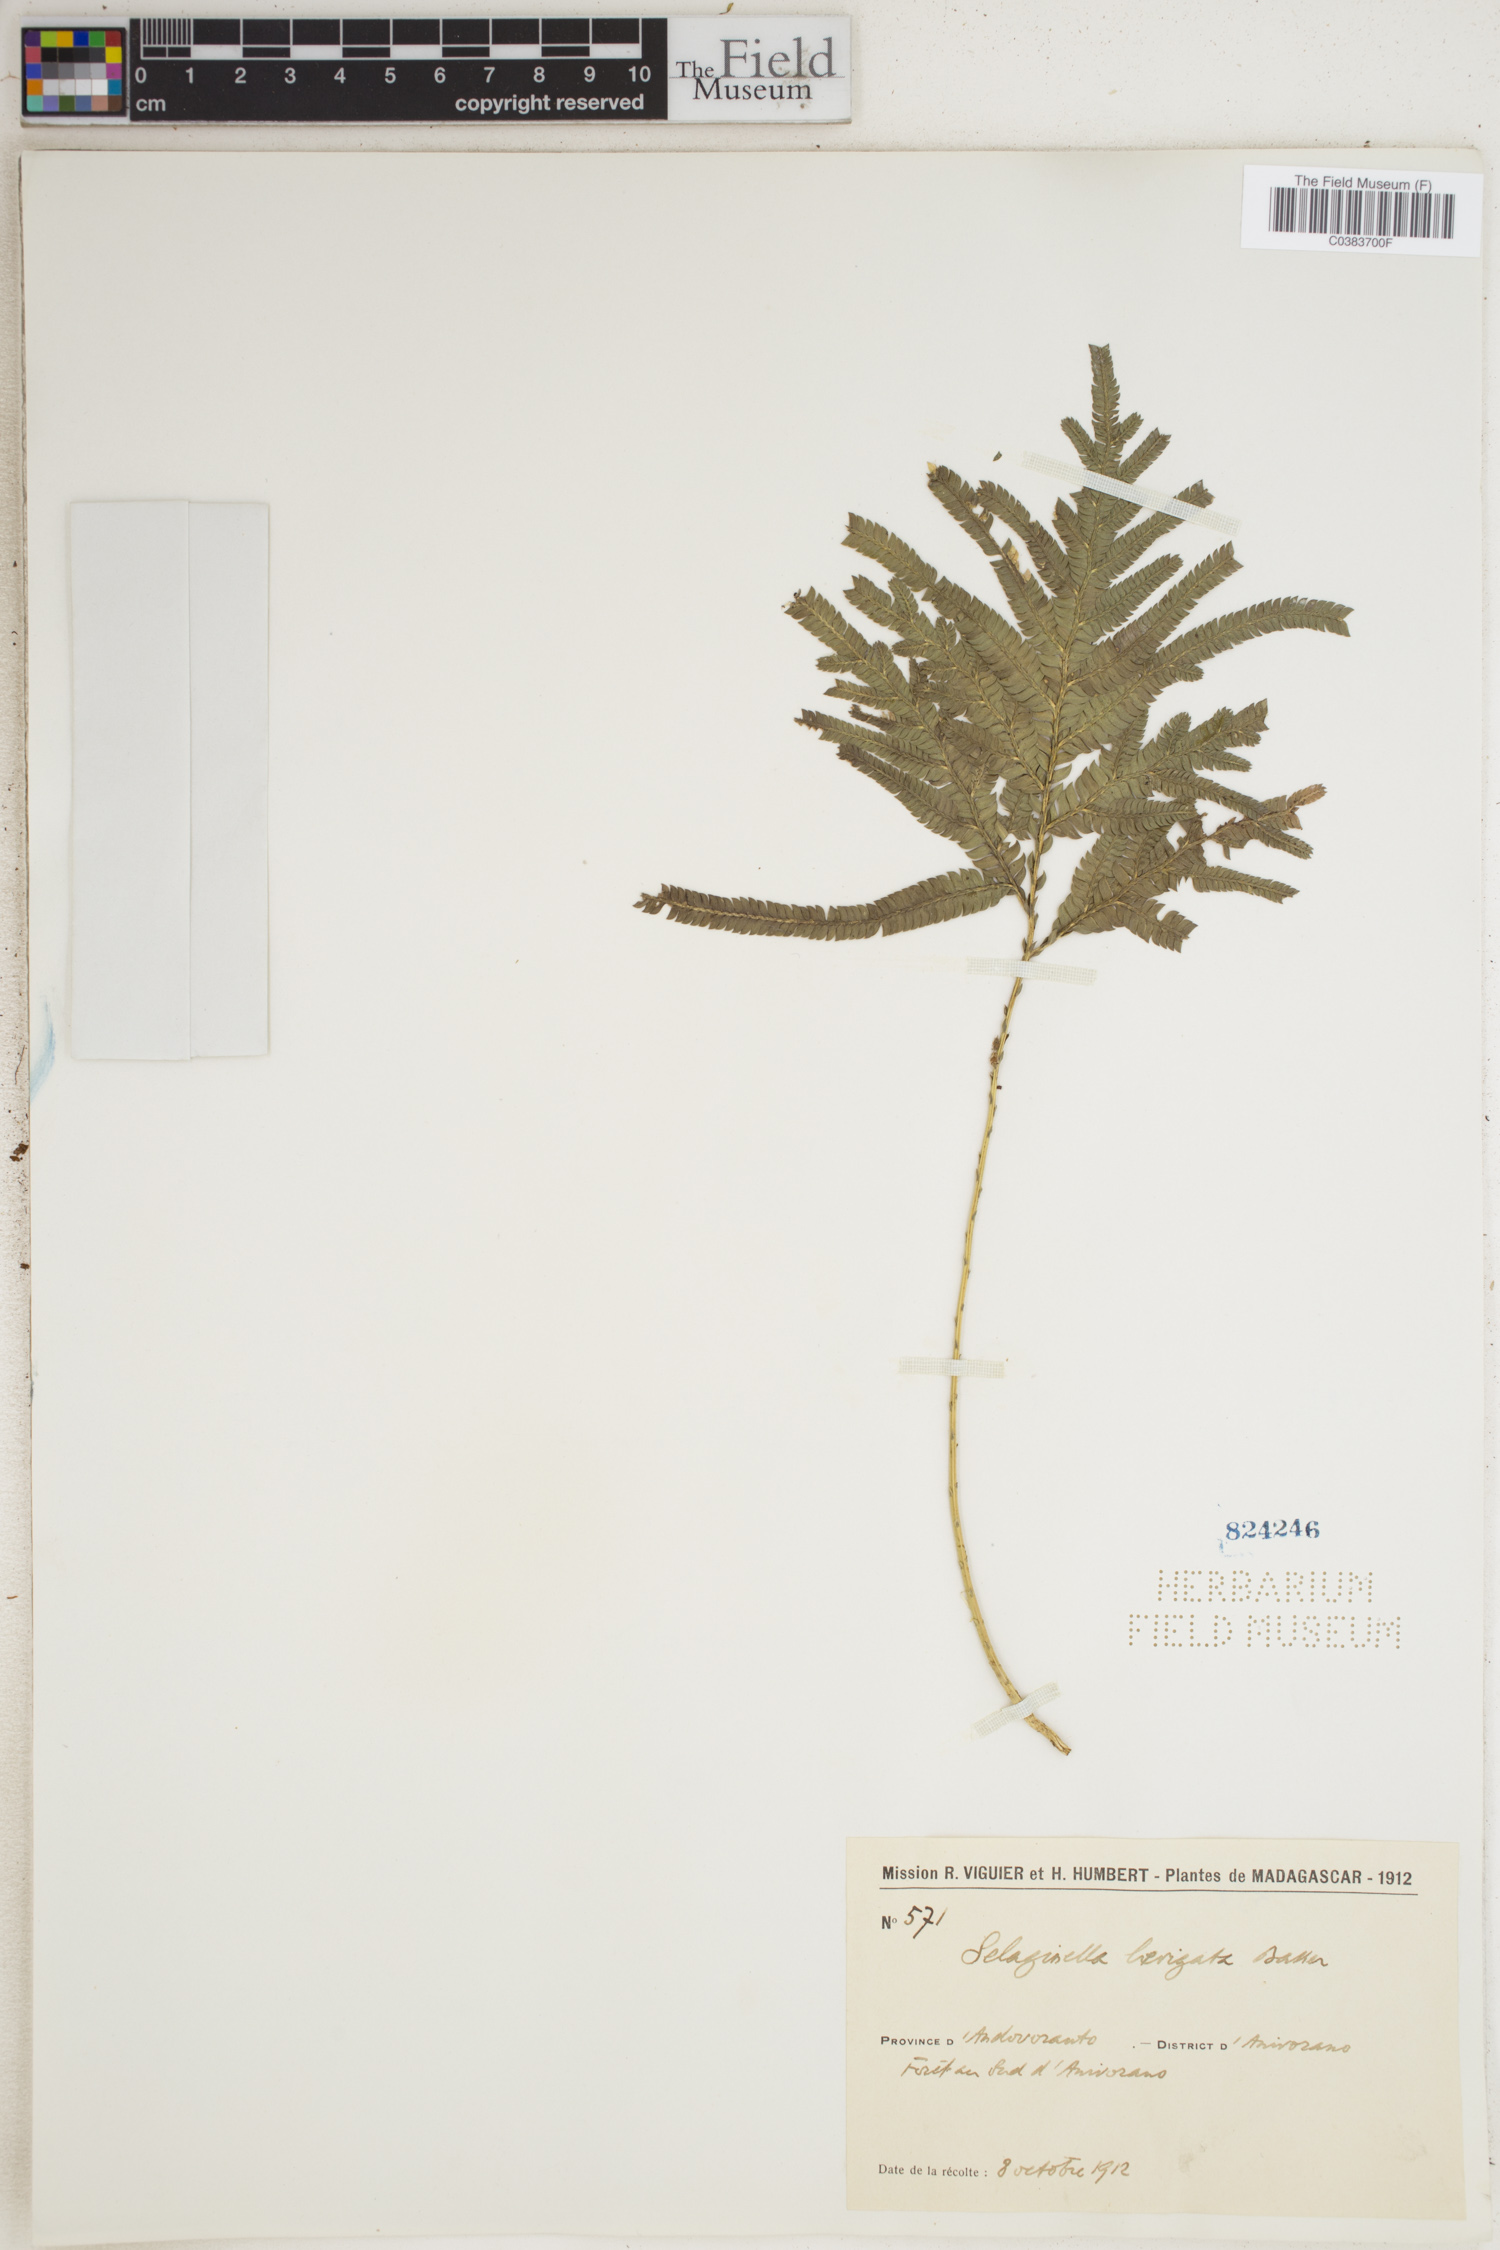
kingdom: Plantae
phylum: Tracheophyta
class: Lycopodiopsida
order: Selaginellales
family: Selaginellaceae
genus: Selaginella
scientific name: Selaginella polymorpha
